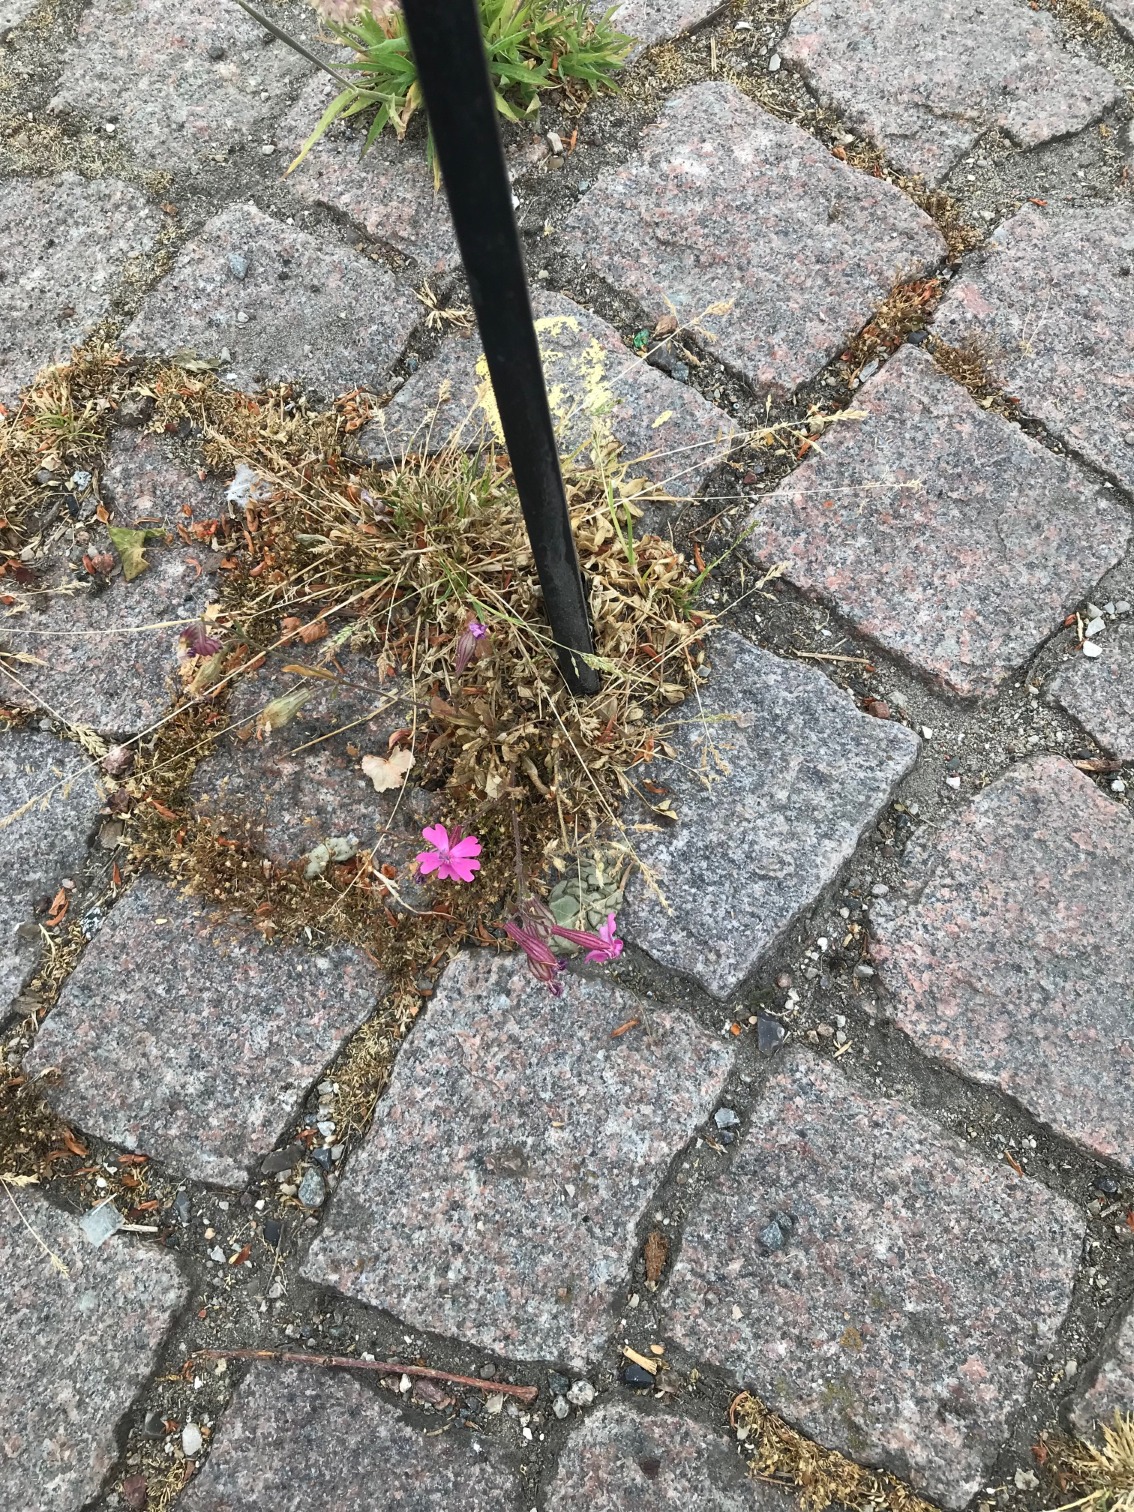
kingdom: Plantae
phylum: Tracheophyta
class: Magnoliopsida
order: Caryophyllales
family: Caryophyllaceae
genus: Silene
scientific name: Silene dioica
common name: Dagpragtstjerne
